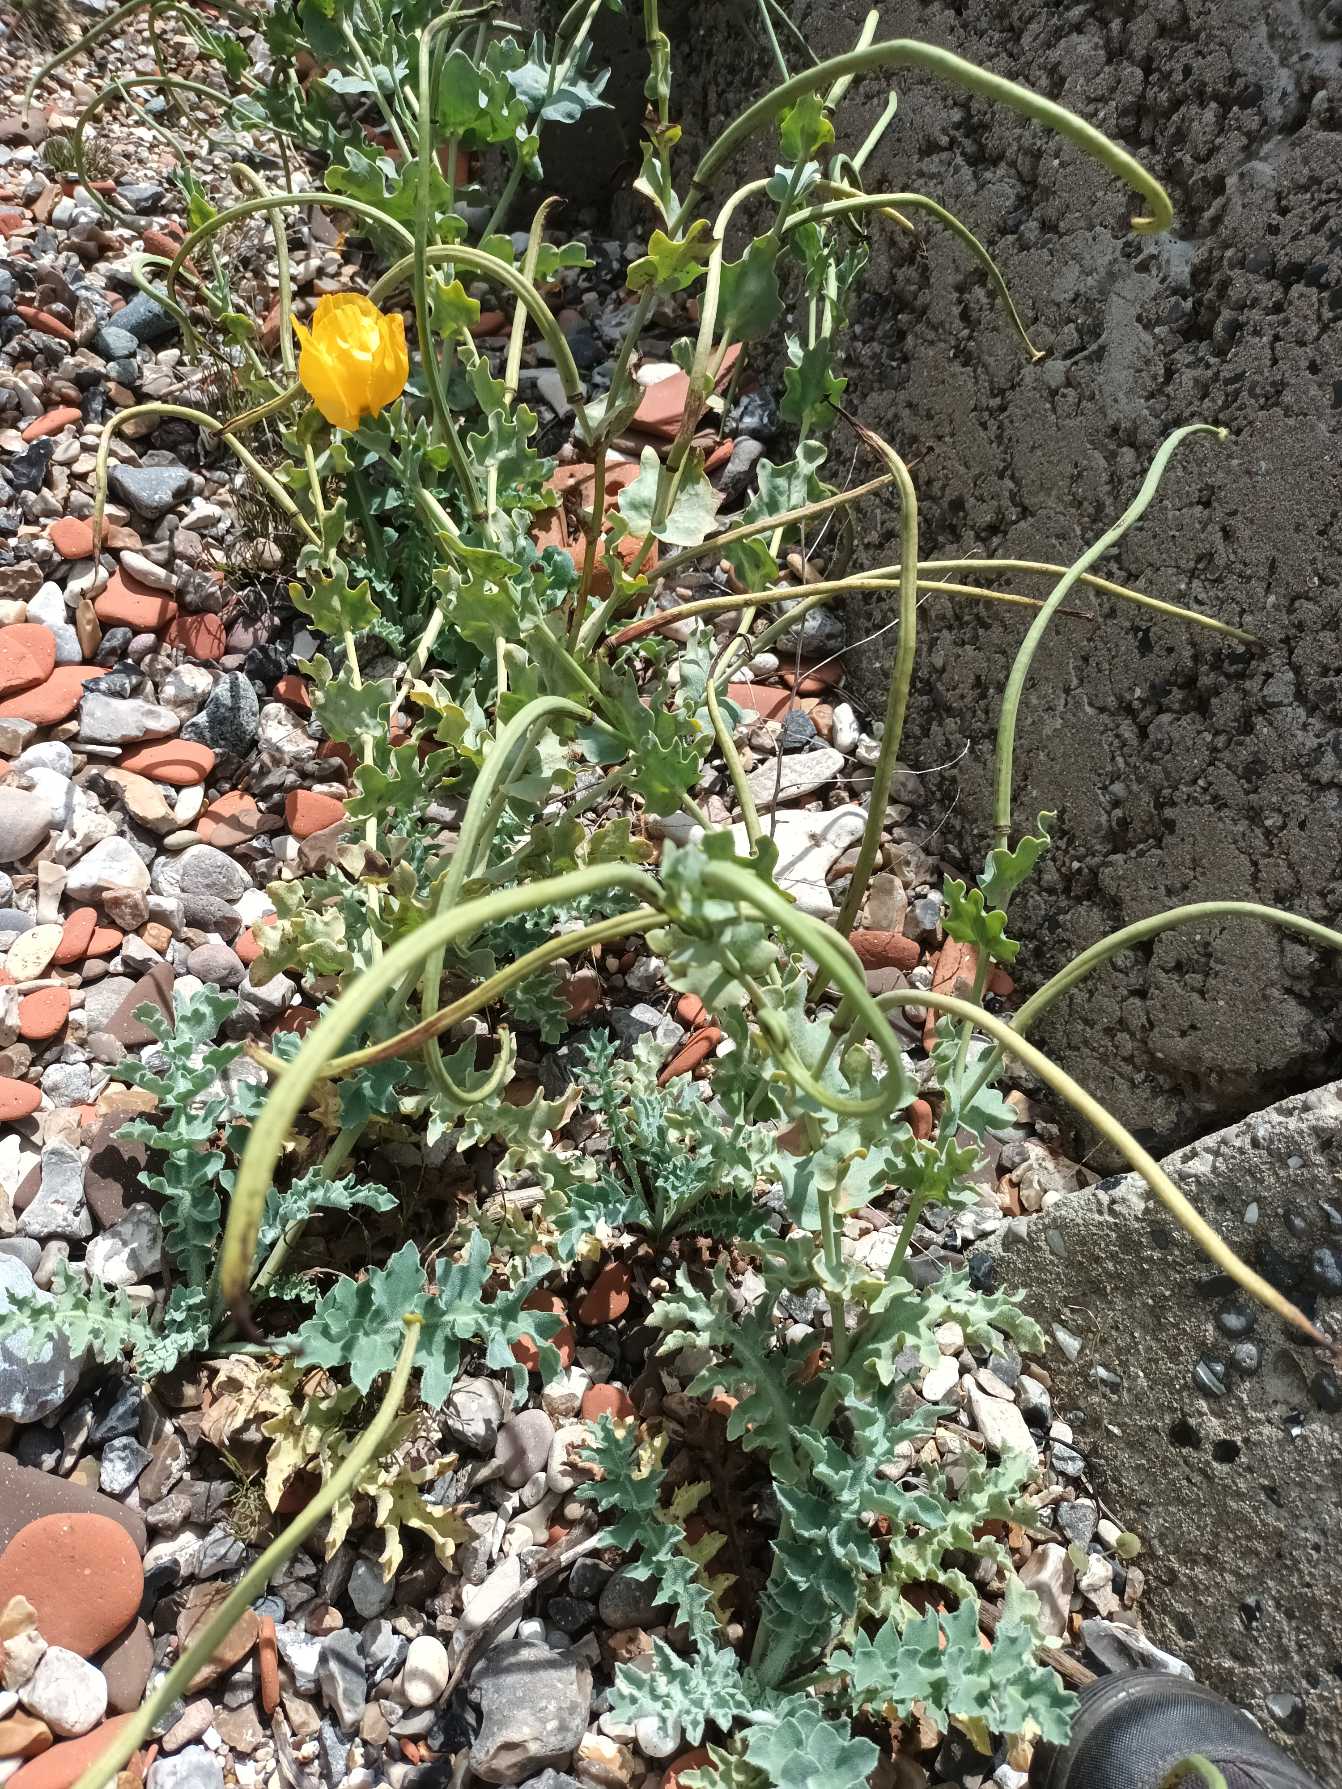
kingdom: Plantae
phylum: Tracheophyta
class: Magnoliopsida
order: Ranunculales
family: Papaveraceae
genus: Glaucium
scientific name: Glaucium flavum
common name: Hornskulpe
